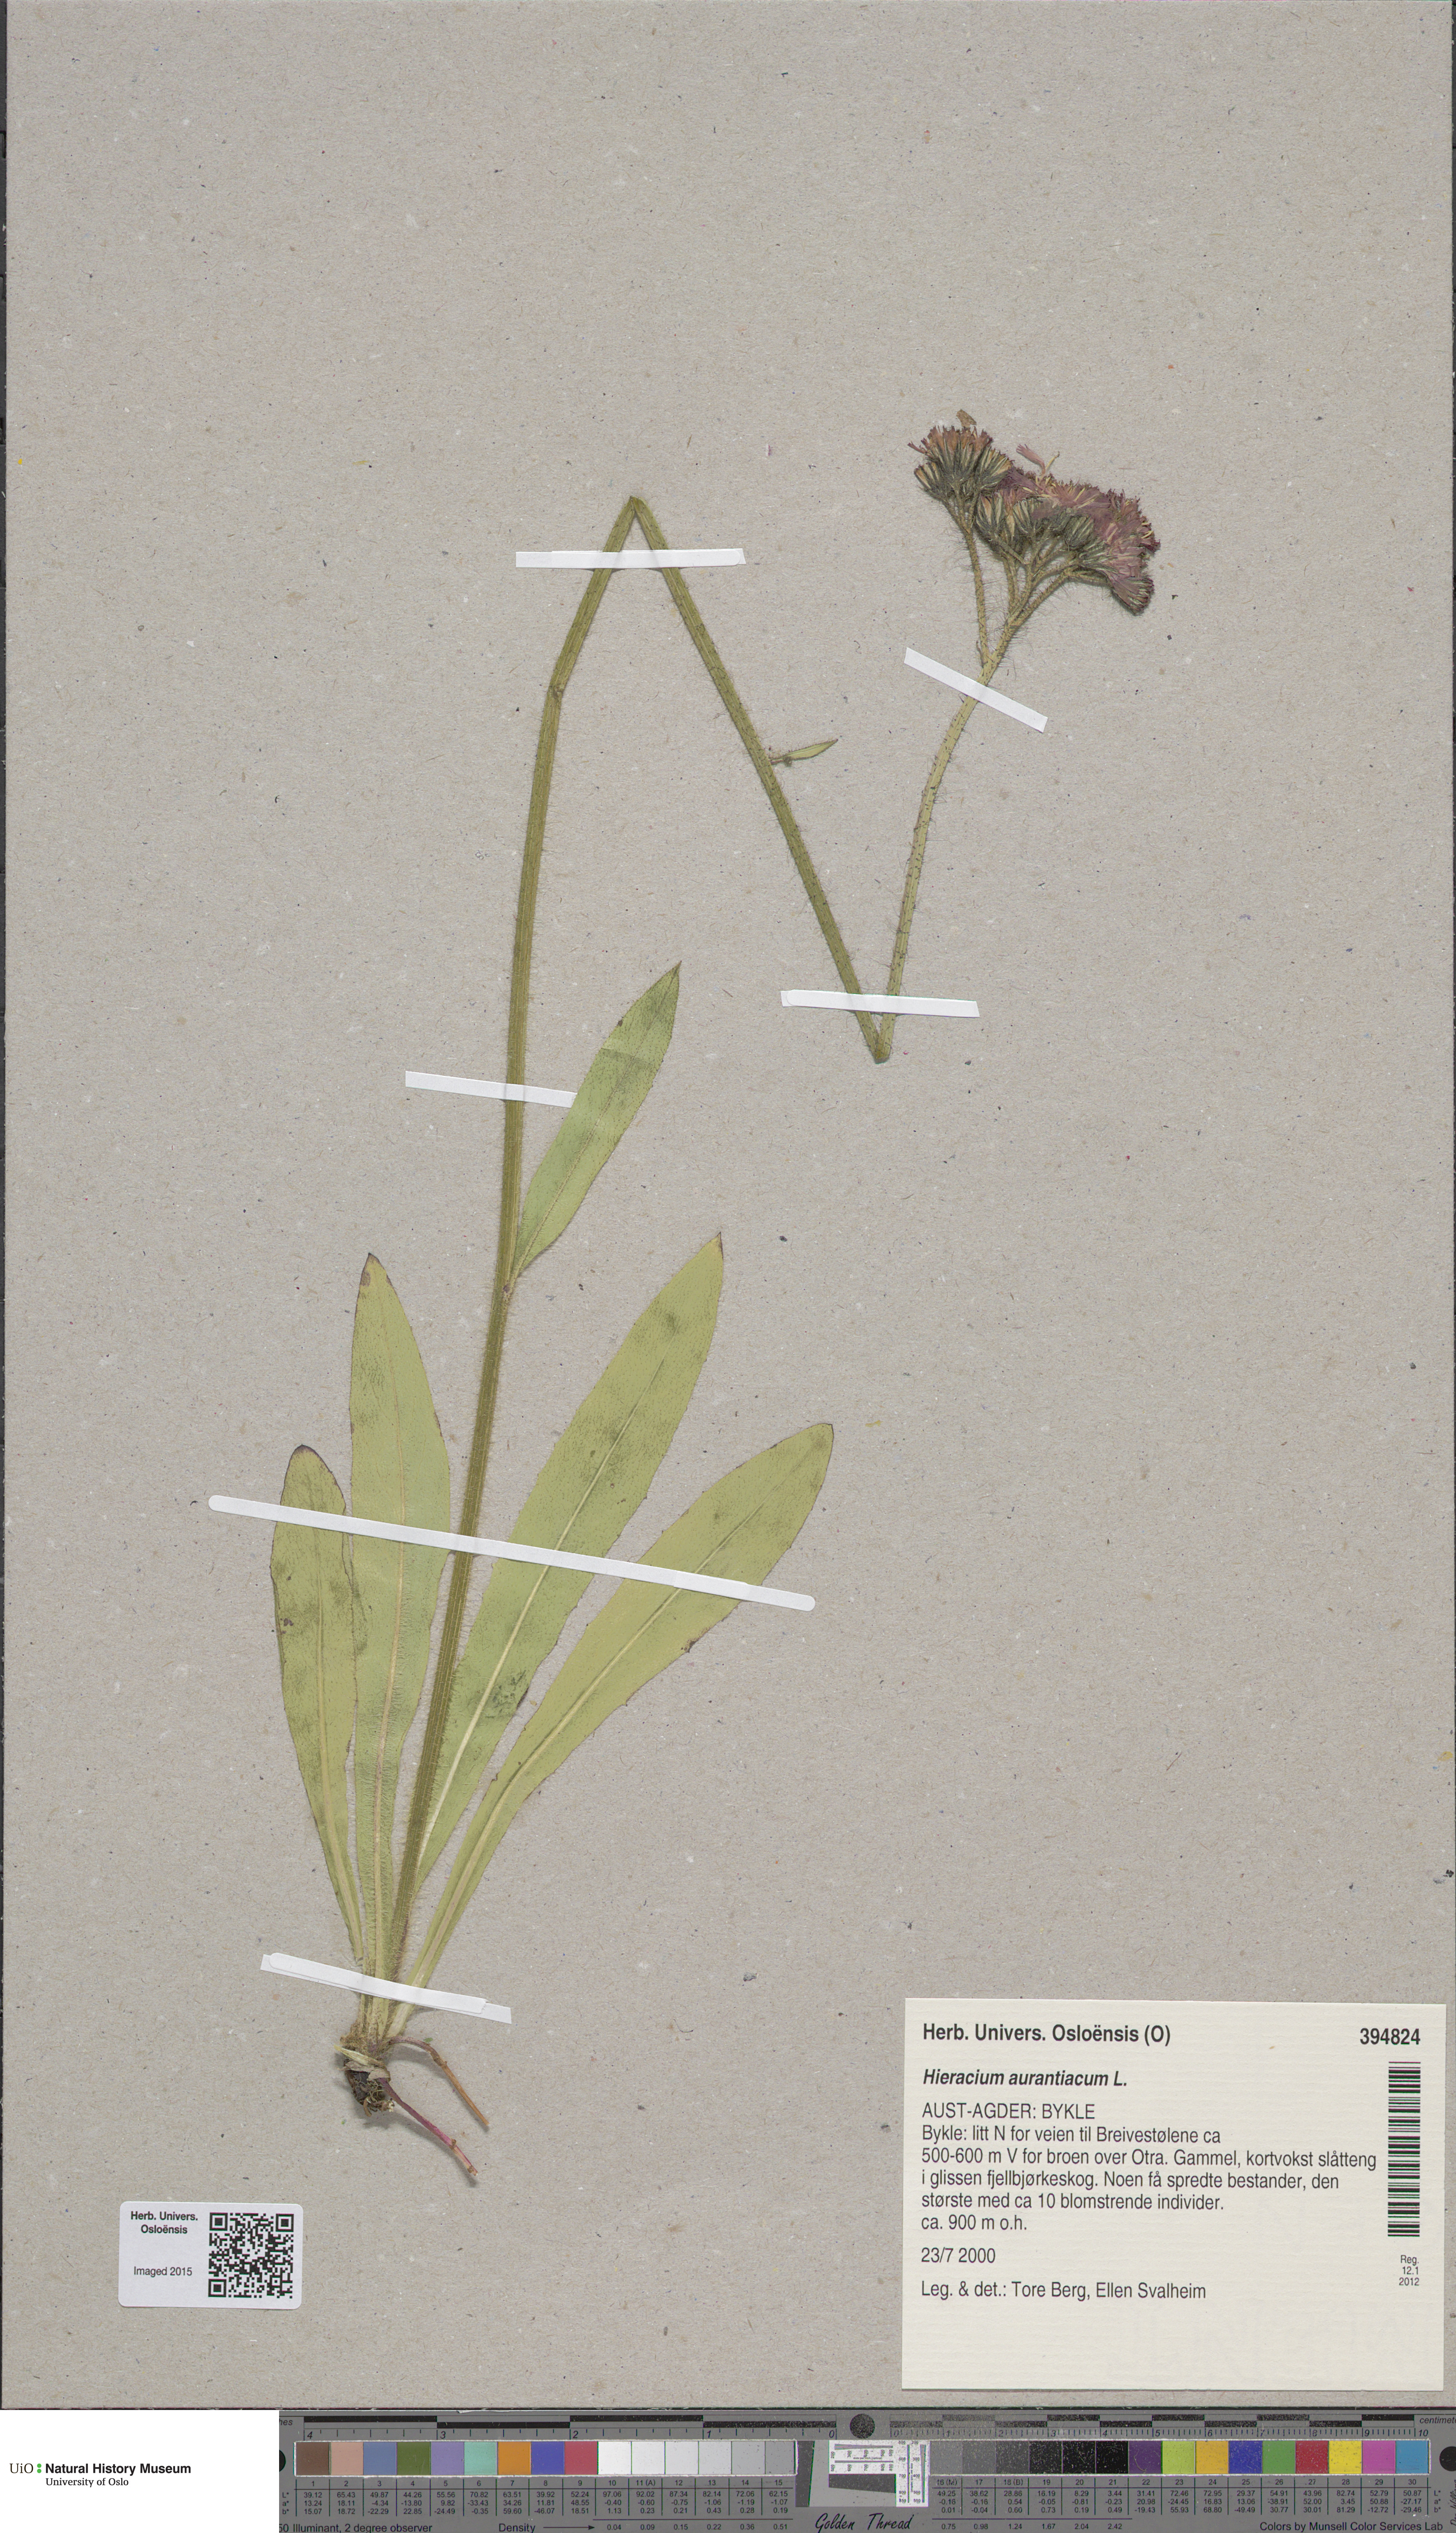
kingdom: Plantae
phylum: Tracheophyta
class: Magnoliopsida
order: Asterales
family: Asteraceae
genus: Pilosella
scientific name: Pilosella aurantiaca
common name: Fox-and-cubs
